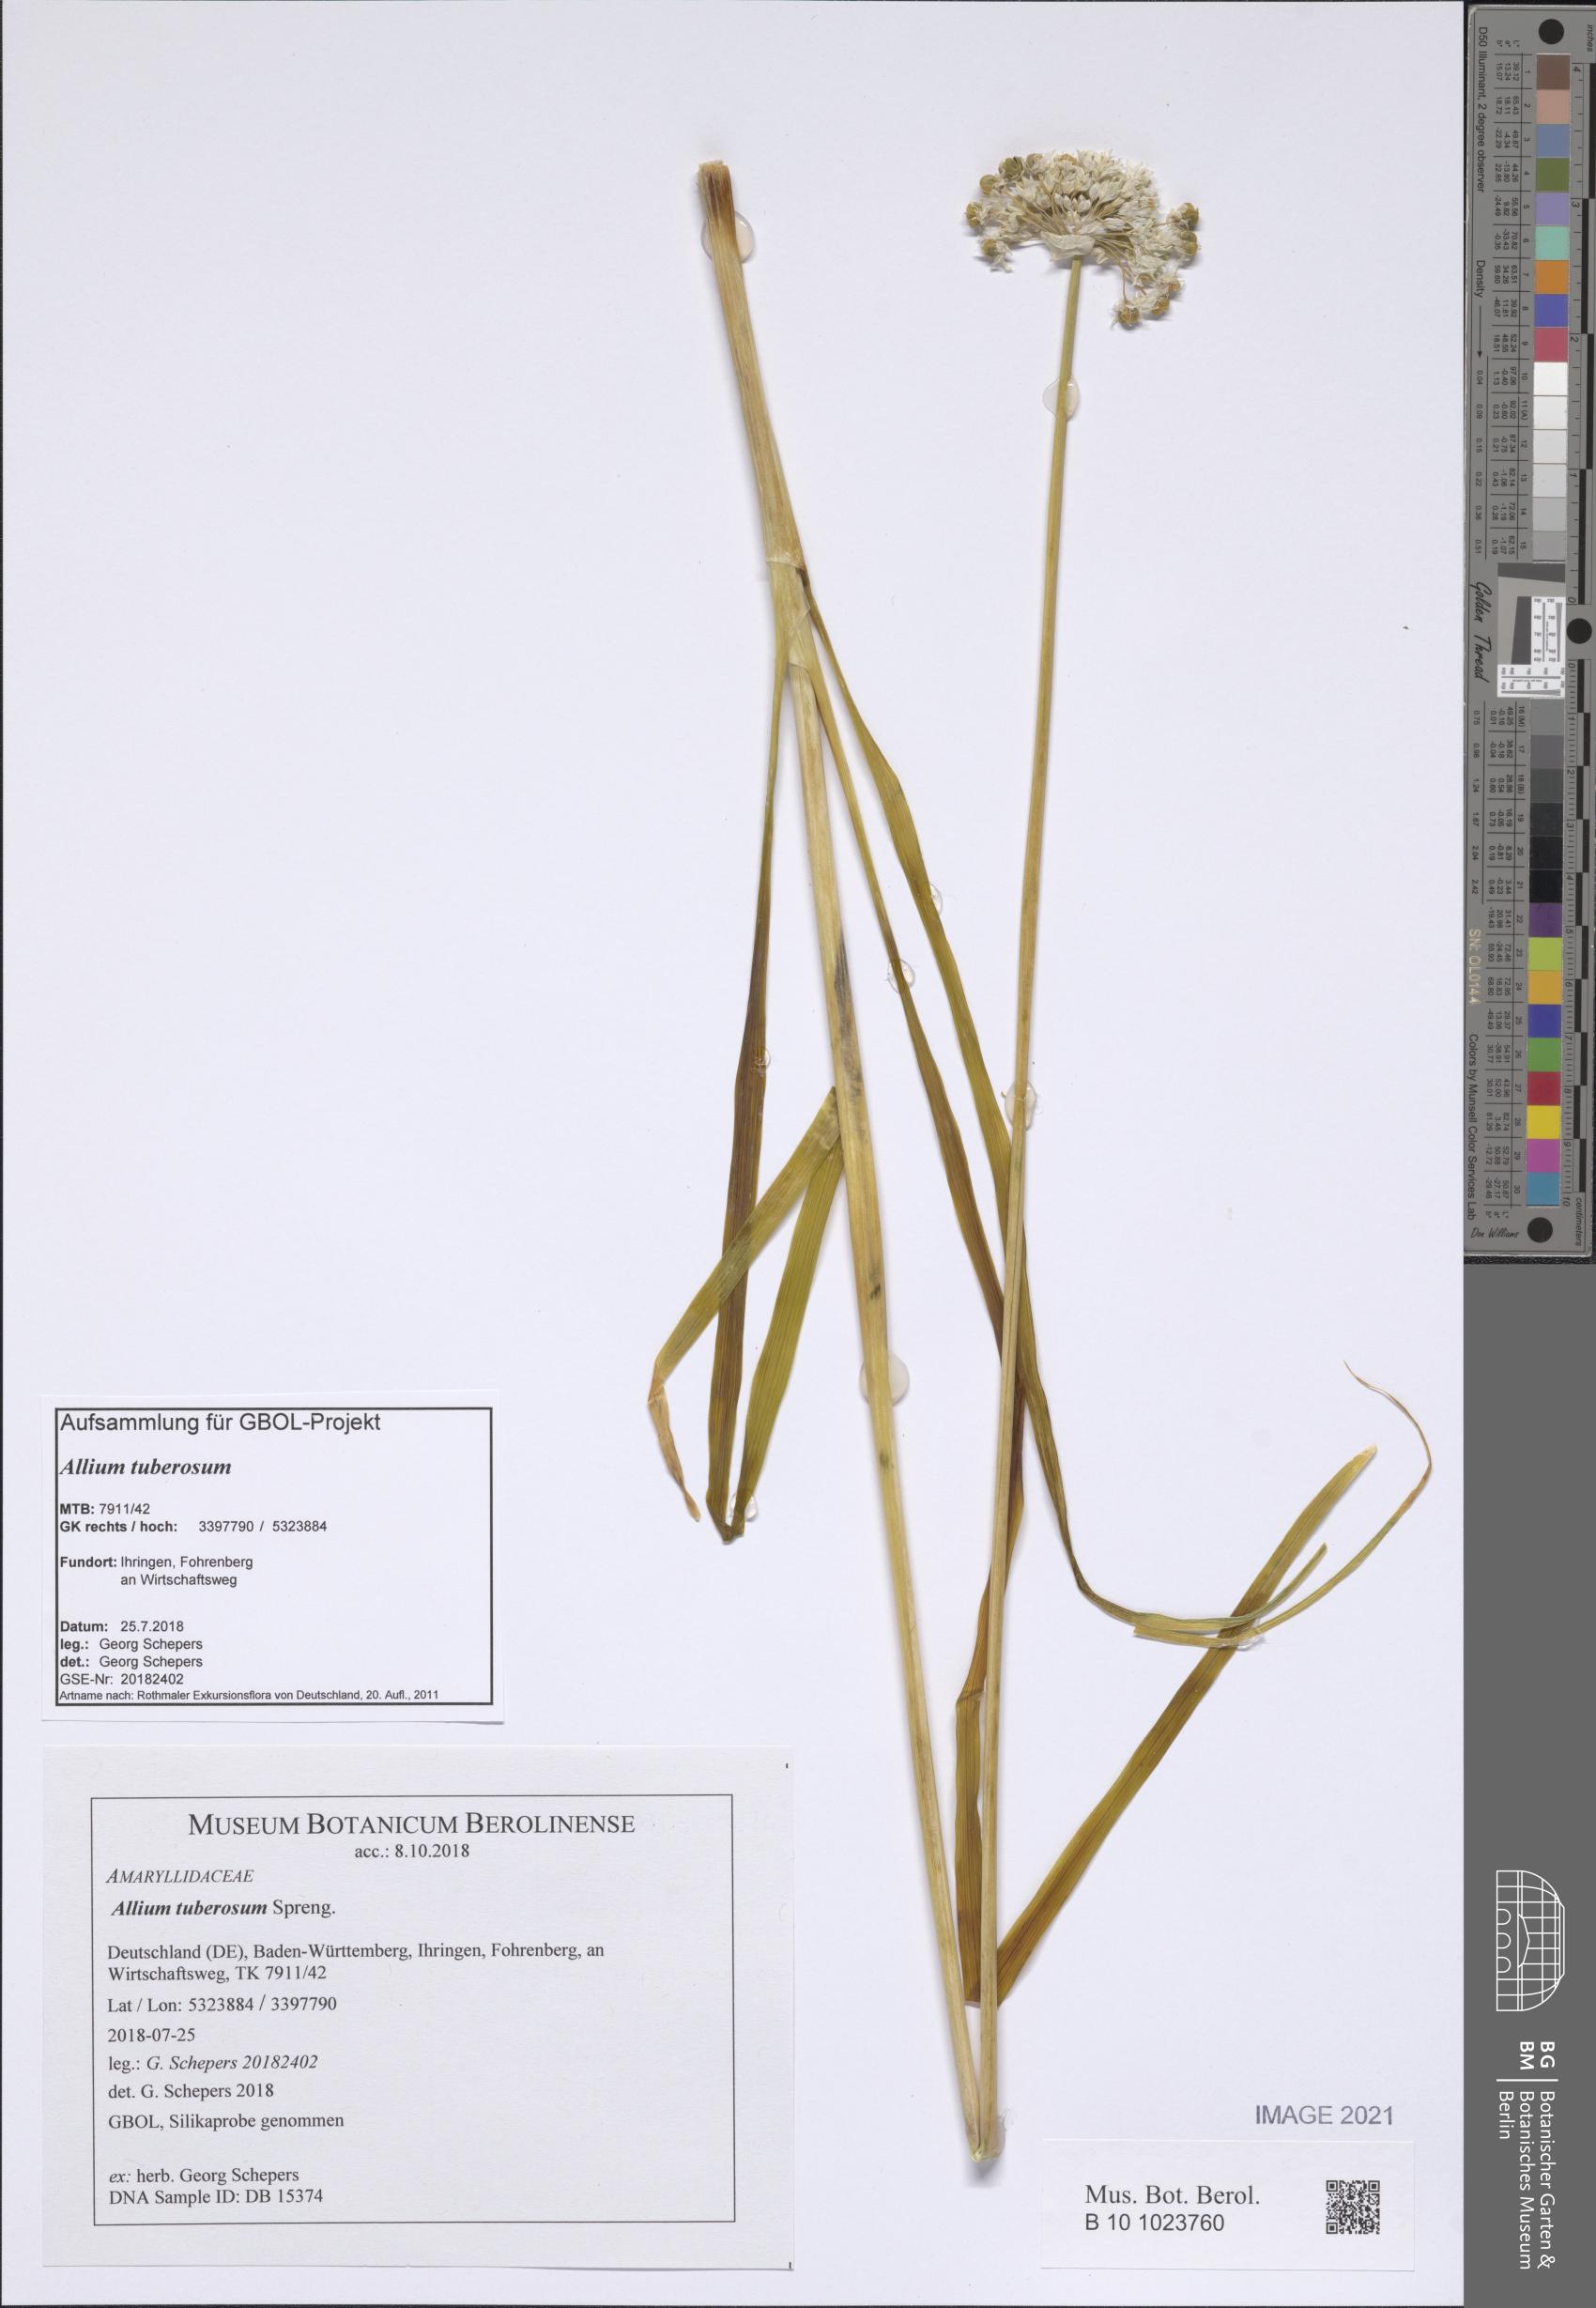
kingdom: Plantae
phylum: Tracheophyta
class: Liliopsida
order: Asparagales
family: Amaryllidaceae
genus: Allium
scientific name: Allium tuberosum
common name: Chinese chives
